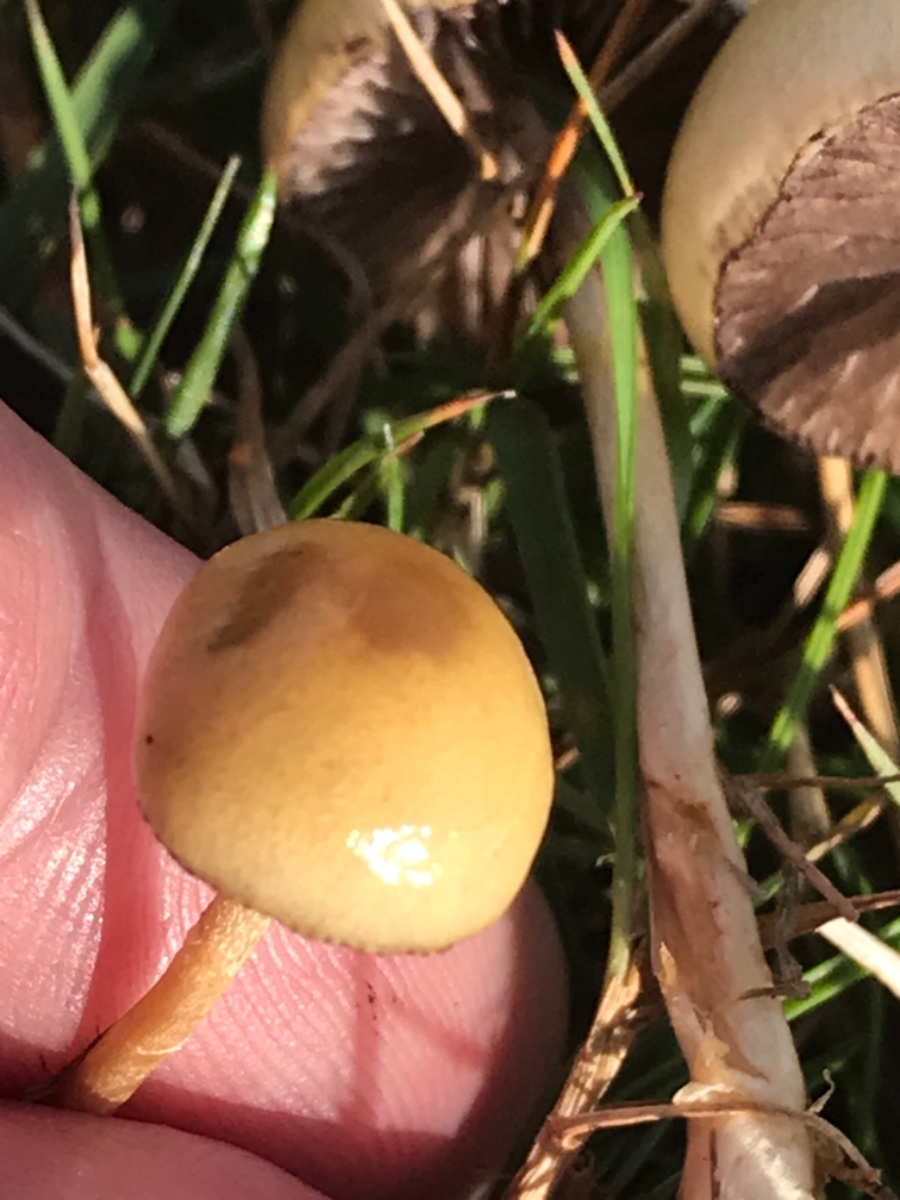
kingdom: Fungi
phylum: Basidiomycota
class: Agaricomycetes
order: Agaricales
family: Strophariaceae
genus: Protostropharia
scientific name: Protostropharia semiglobata
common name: halvkugleformet bredblad
